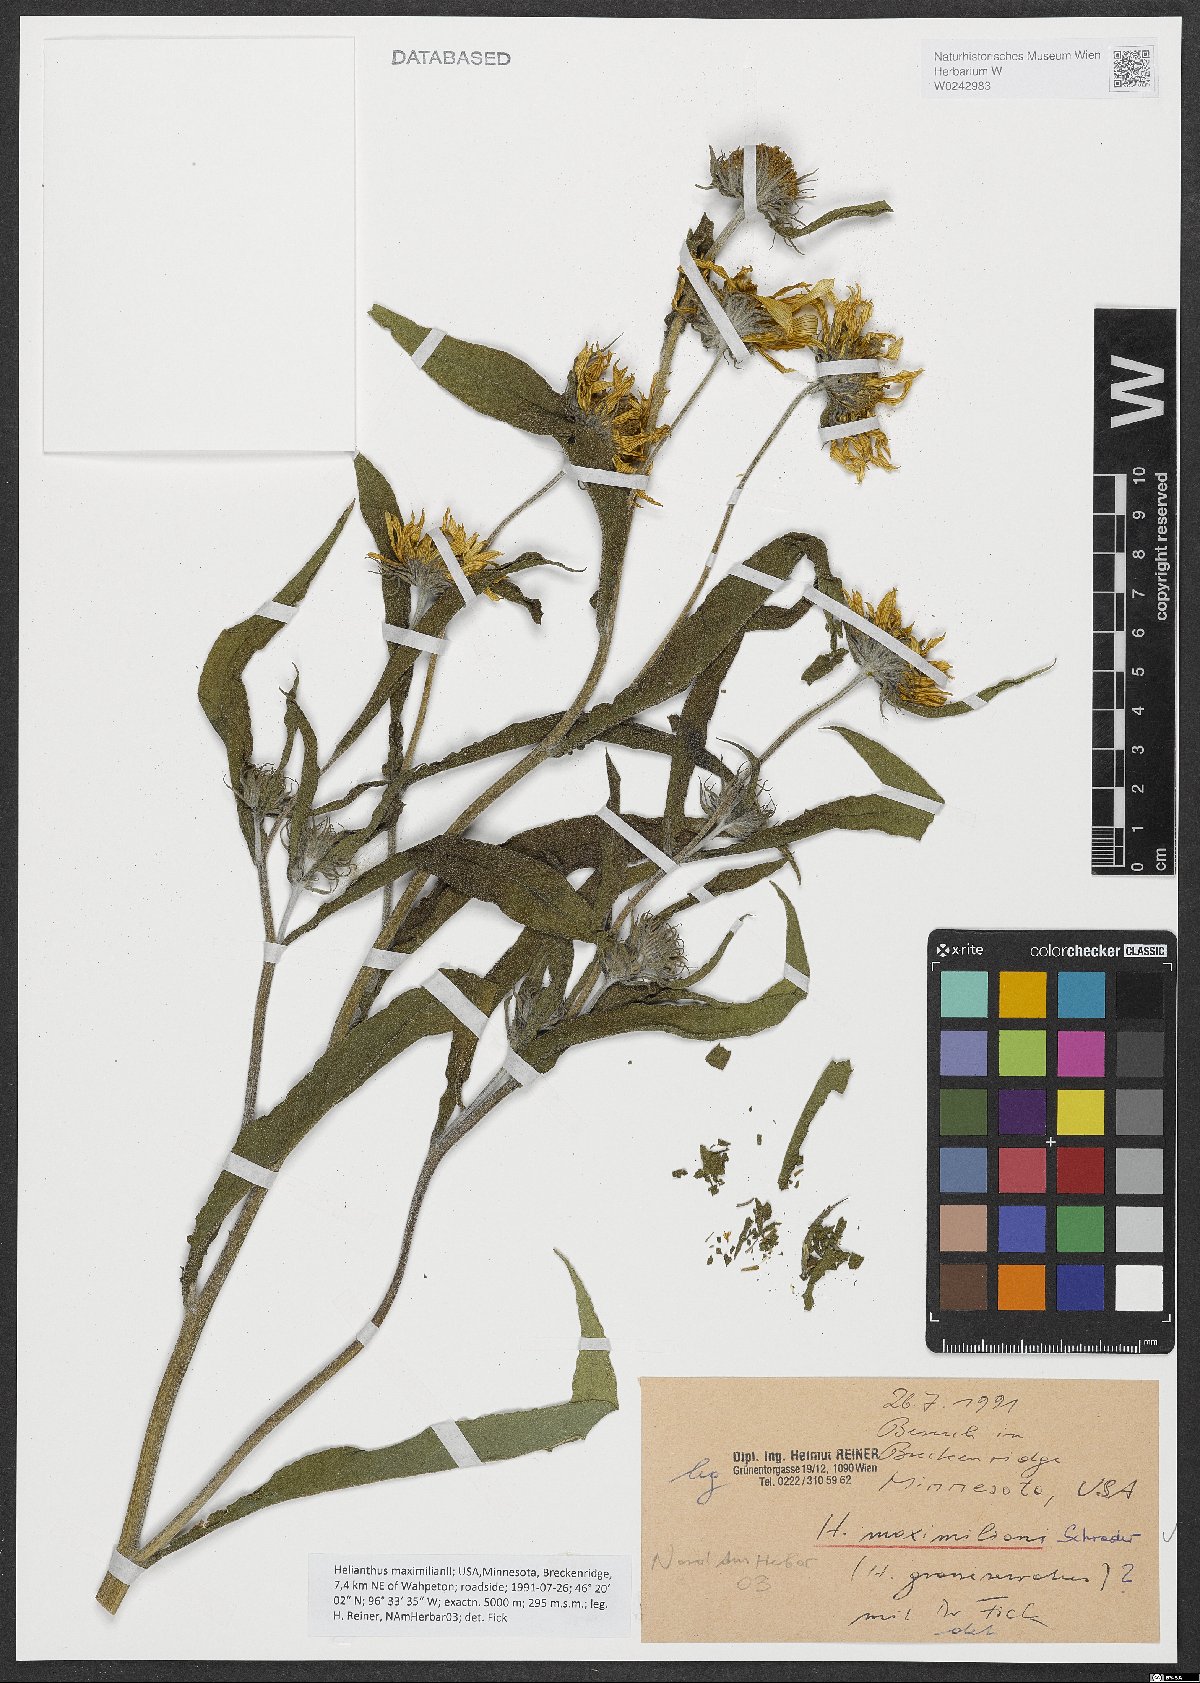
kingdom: Plantae
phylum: Tracheophyta
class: Magnoliopsida
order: Asterales
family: Asteraceae
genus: Helianthus
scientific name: Helianthus maximiliani
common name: Maximilian's sunflower
